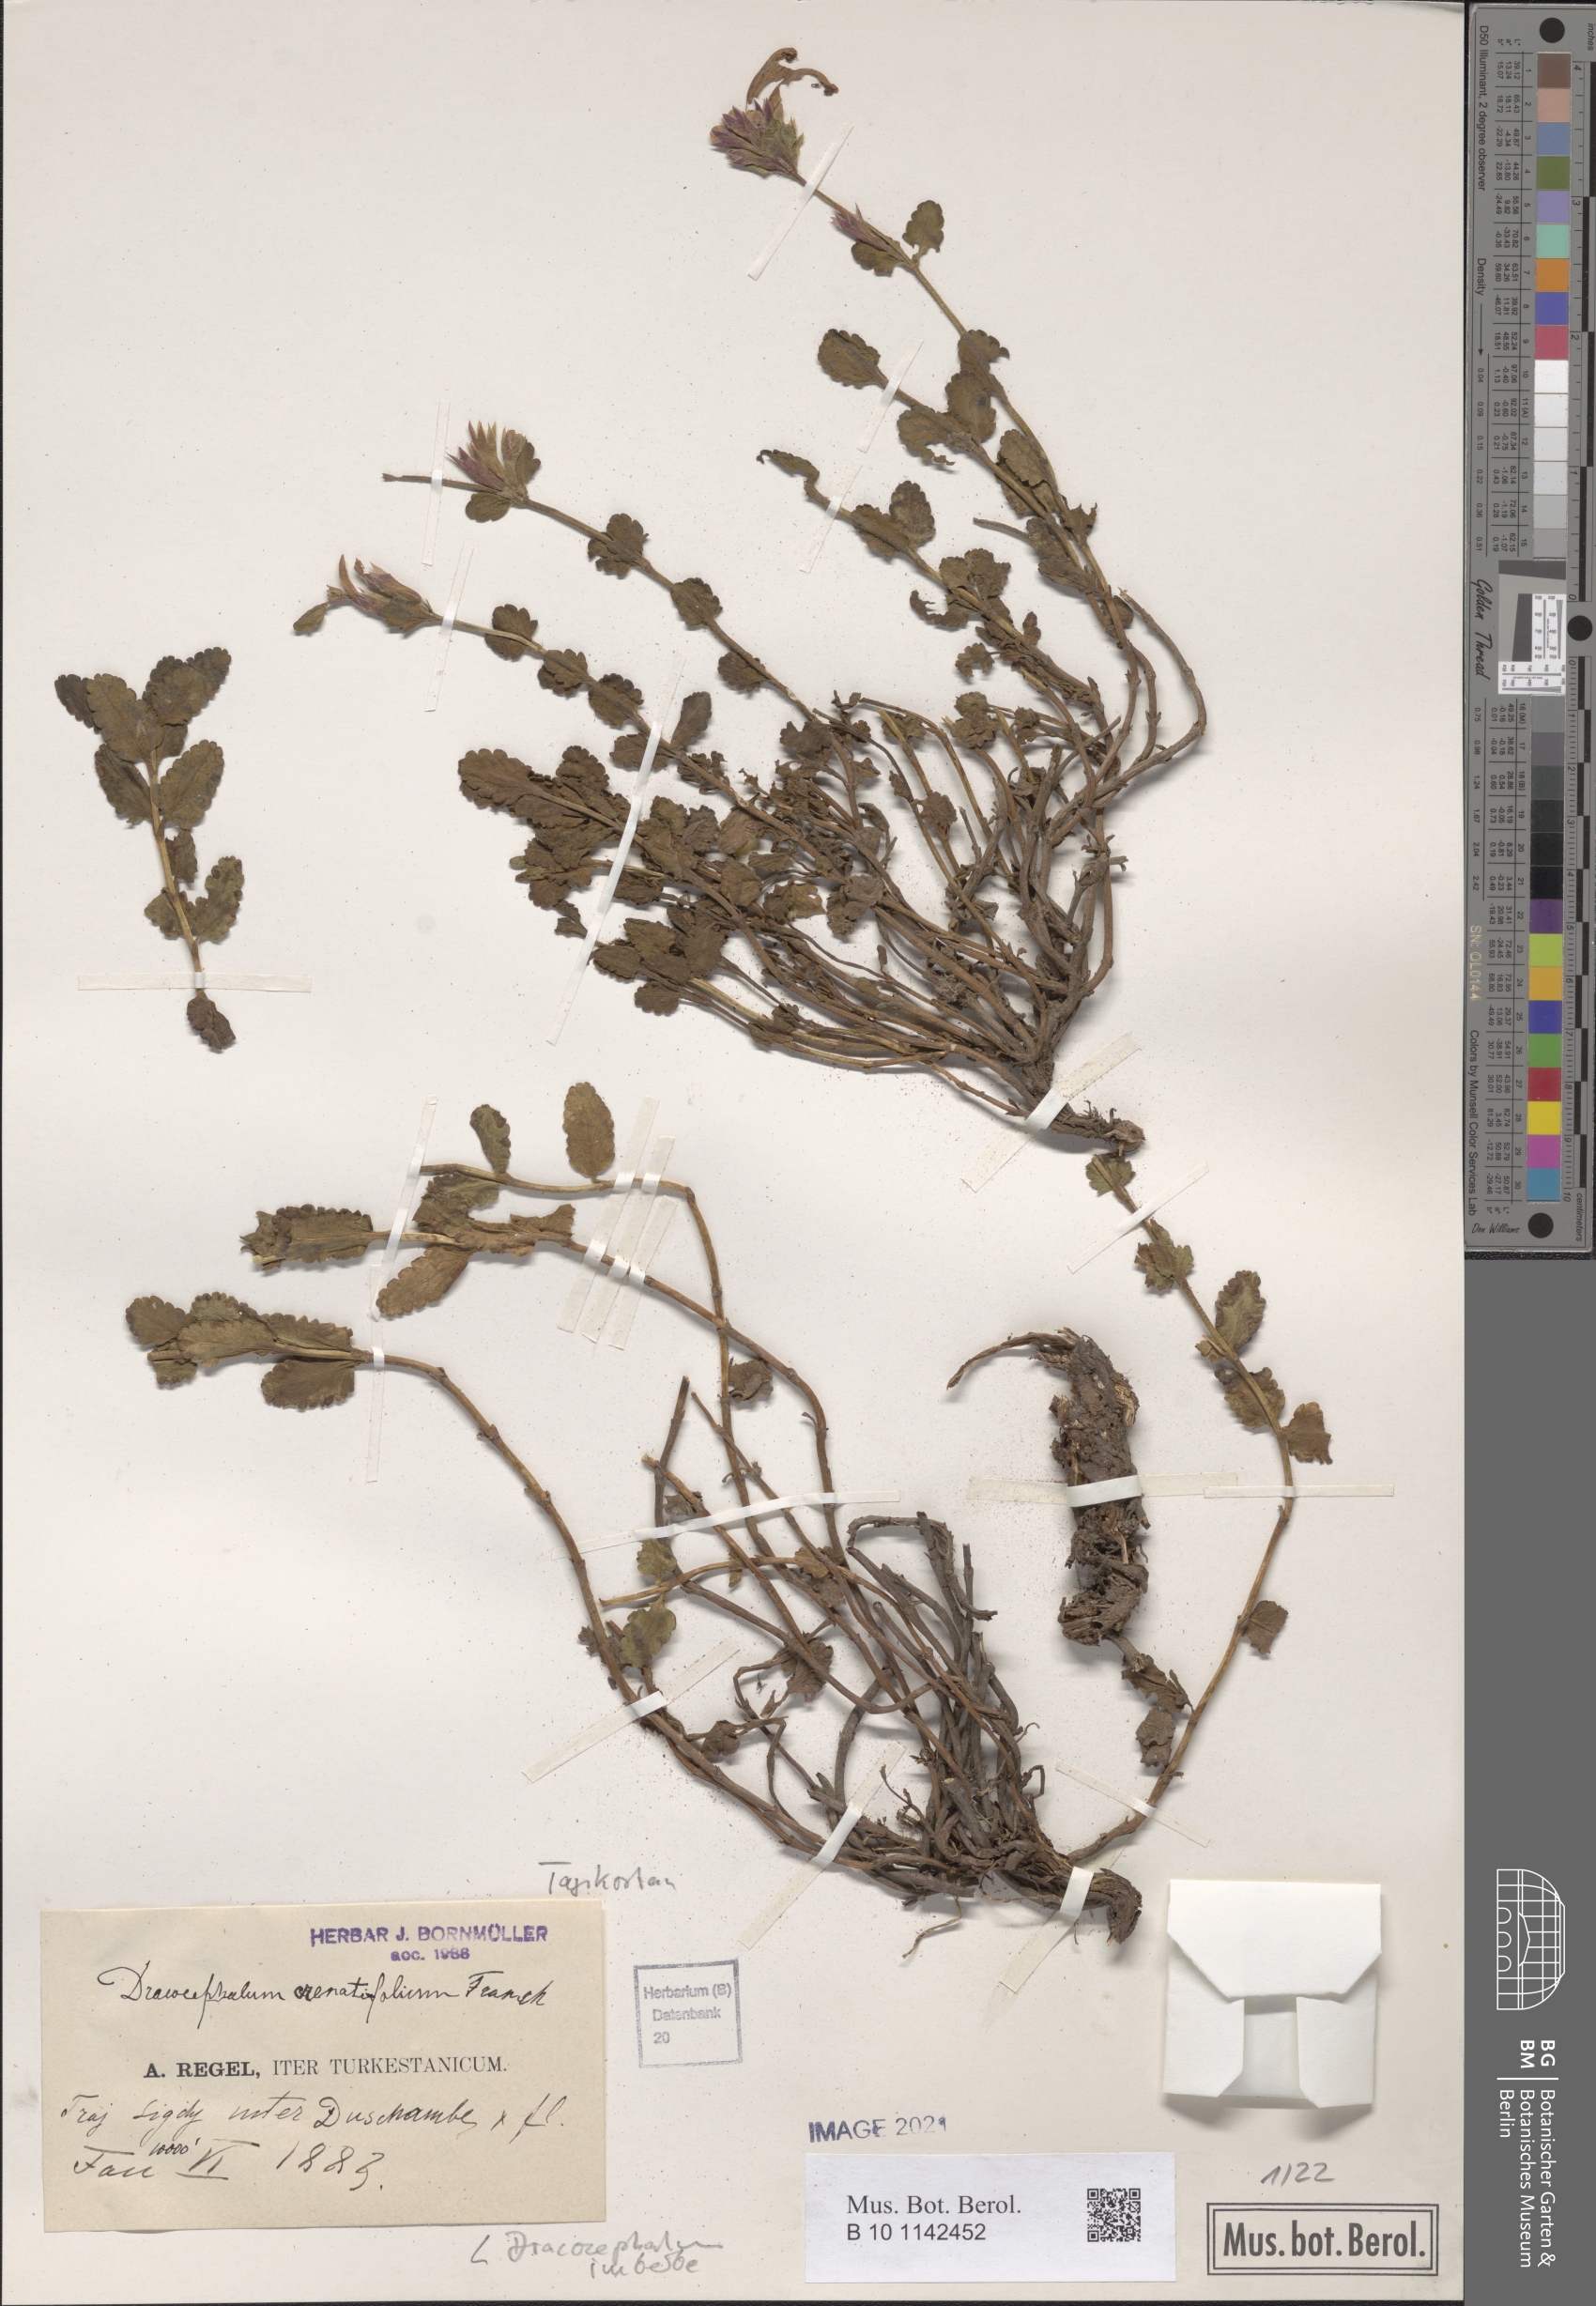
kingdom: Plantae
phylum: Tracheophyta
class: Magnoliopsida
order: Lamiales
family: Lamiaceae
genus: Dracocephalum
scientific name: Dracocephalum imberbe
